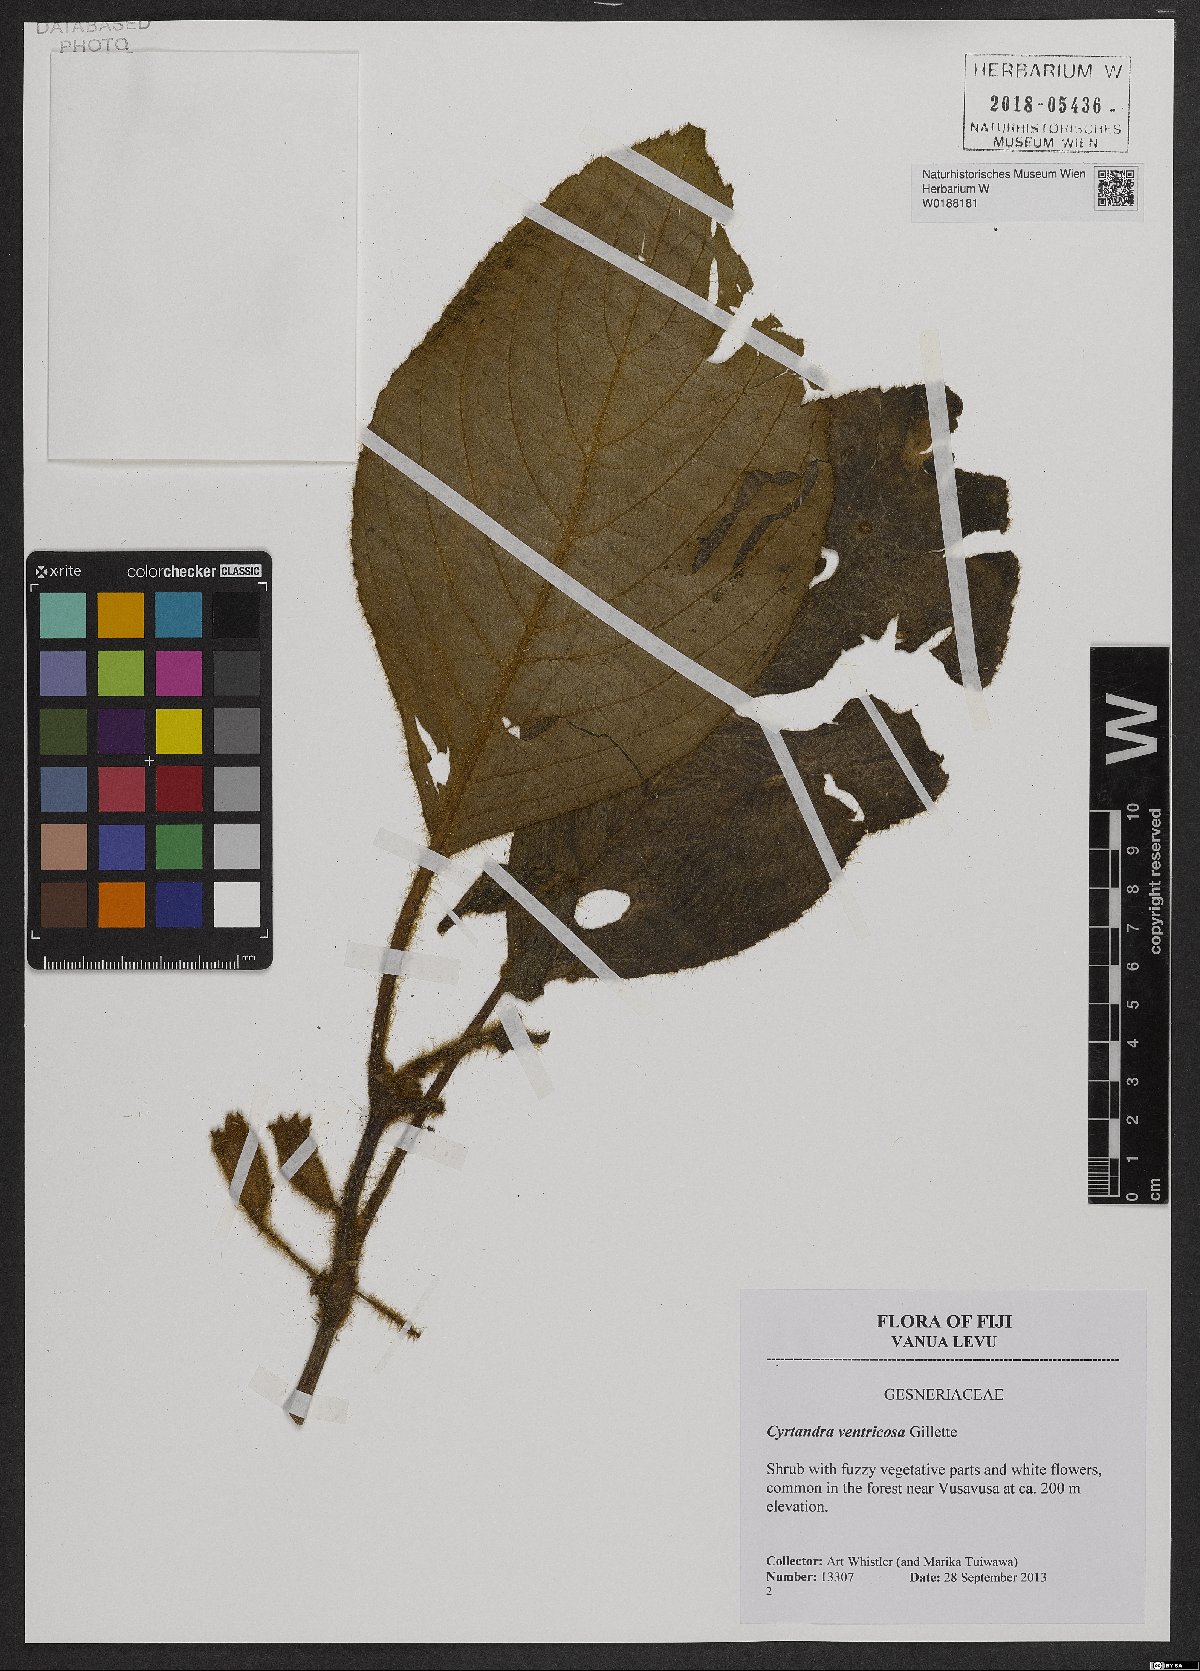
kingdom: Plantae
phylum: Tracheophyta
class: Magnoliopsida
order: Lamiales
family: Gesneriaceae
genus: Cyrtandra
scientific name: Cyrtandra ventricosa
